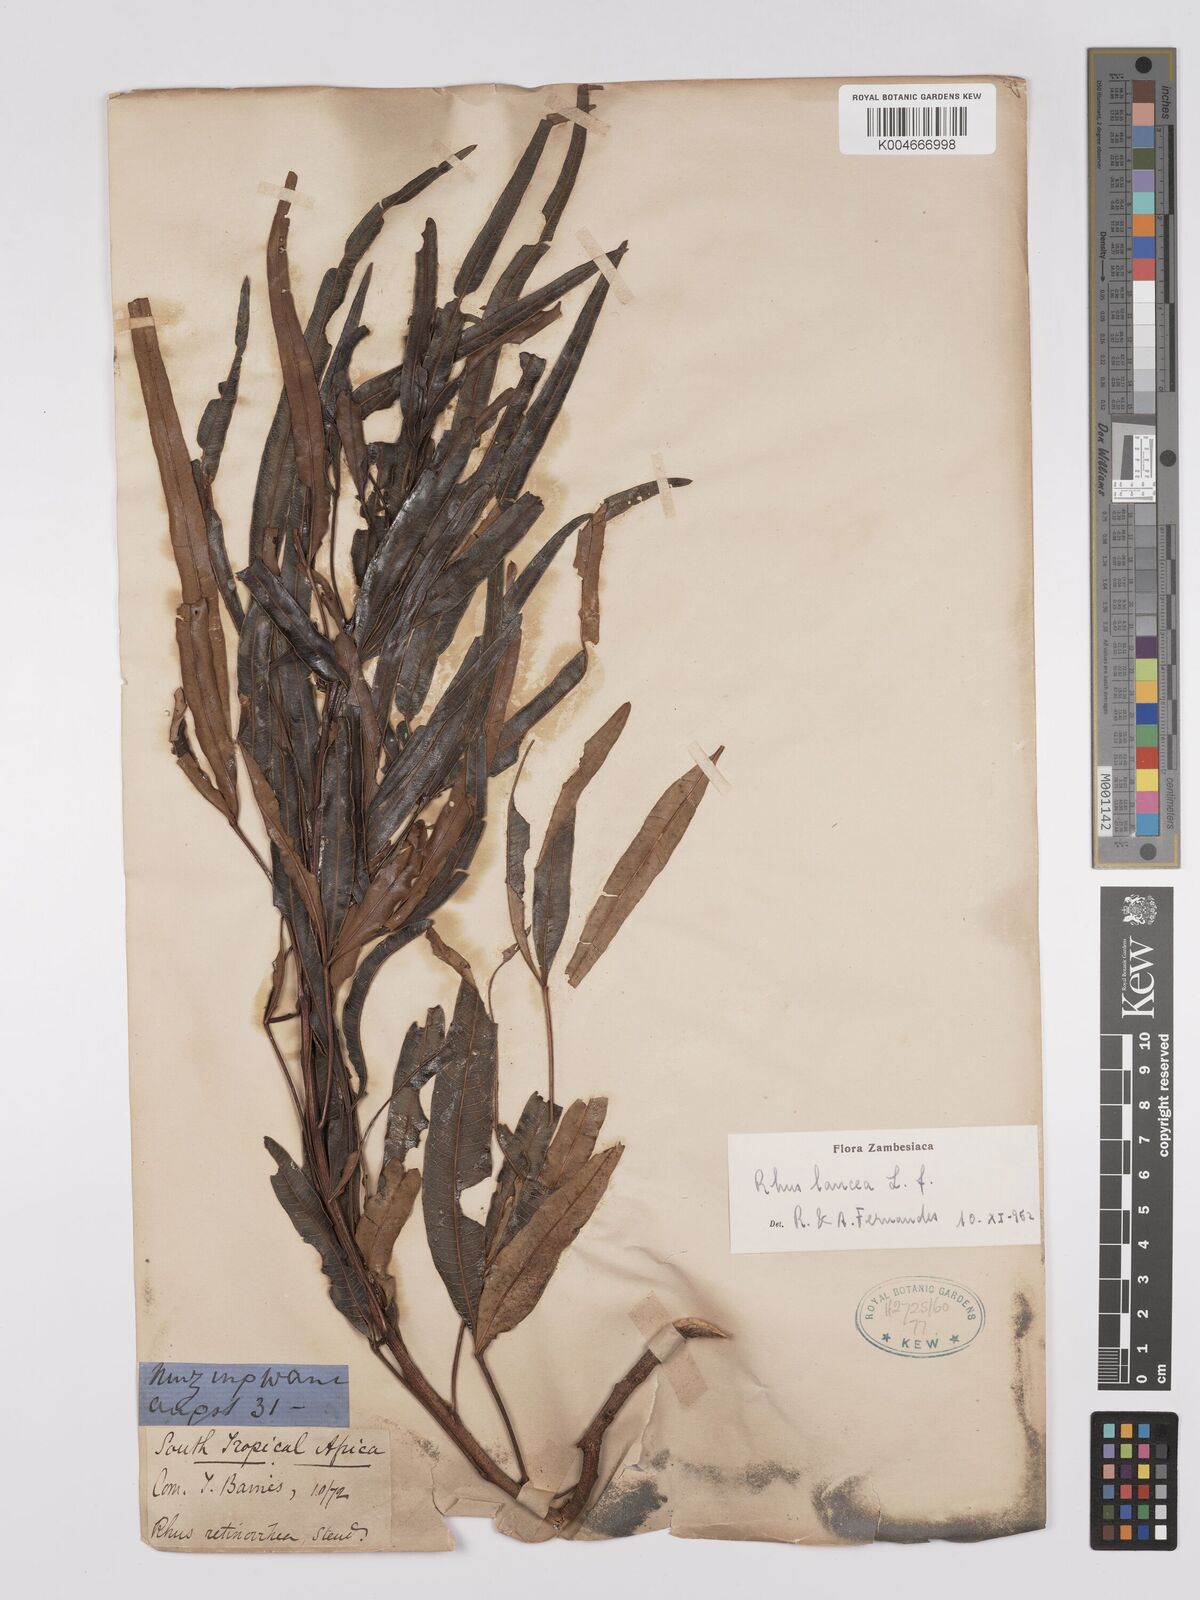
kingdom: Plantae
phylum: Tracheophyta
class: Magnoliopsida
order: Sapindales
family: Anacardiaceae
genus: Searsia
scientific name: Searsia lancea
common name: Cashew
